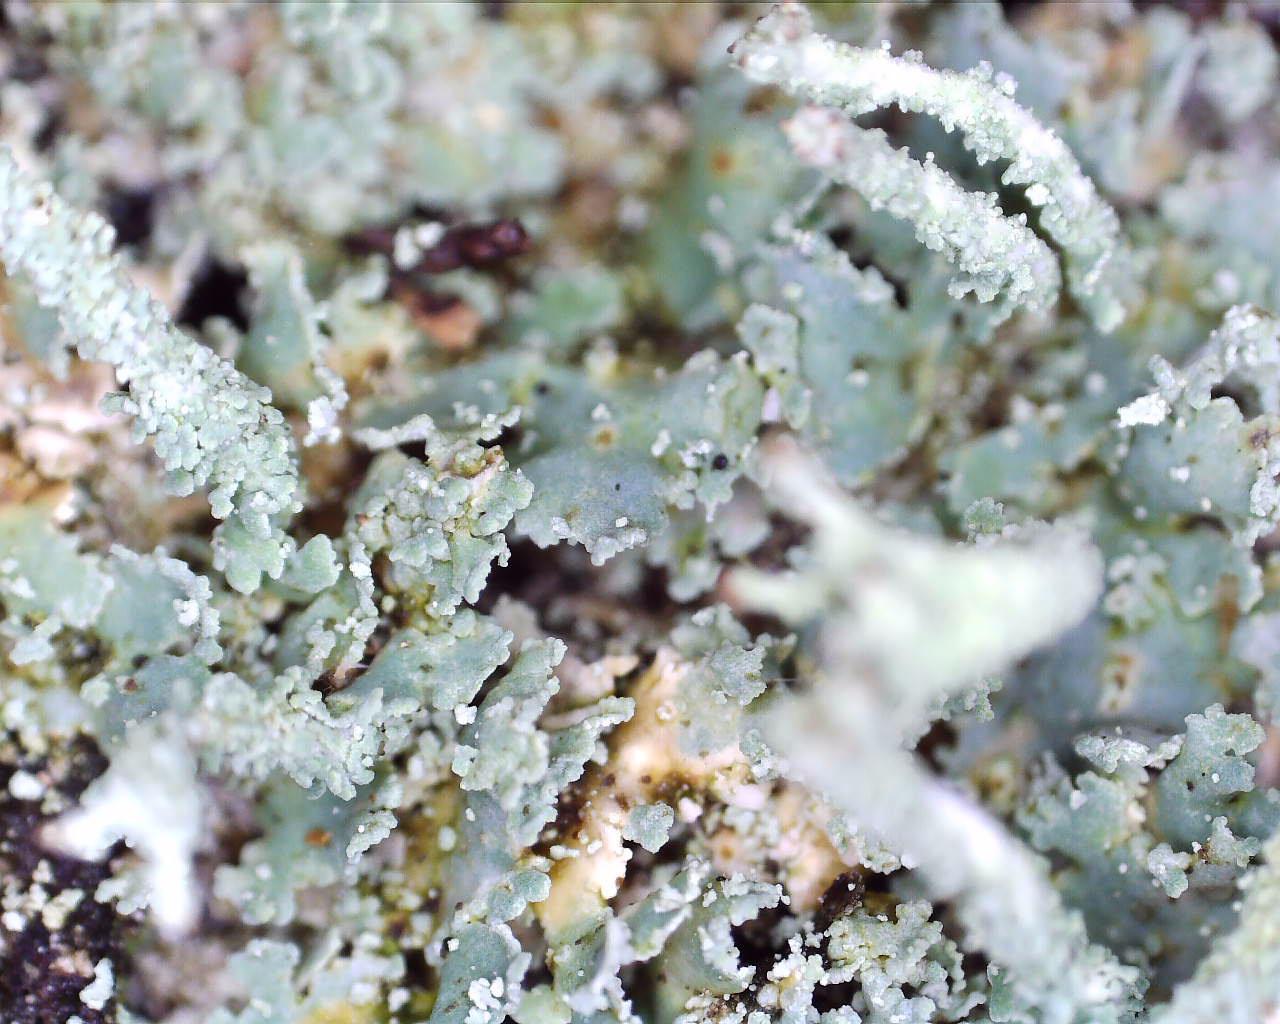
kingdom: Fungi
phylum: Ascomycota
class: Lecanoromycetes
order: Lecanorales
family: Cladoniaceae
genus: Cladonia
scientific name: Cladonia polydactyla
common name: vifte-bægerlav
